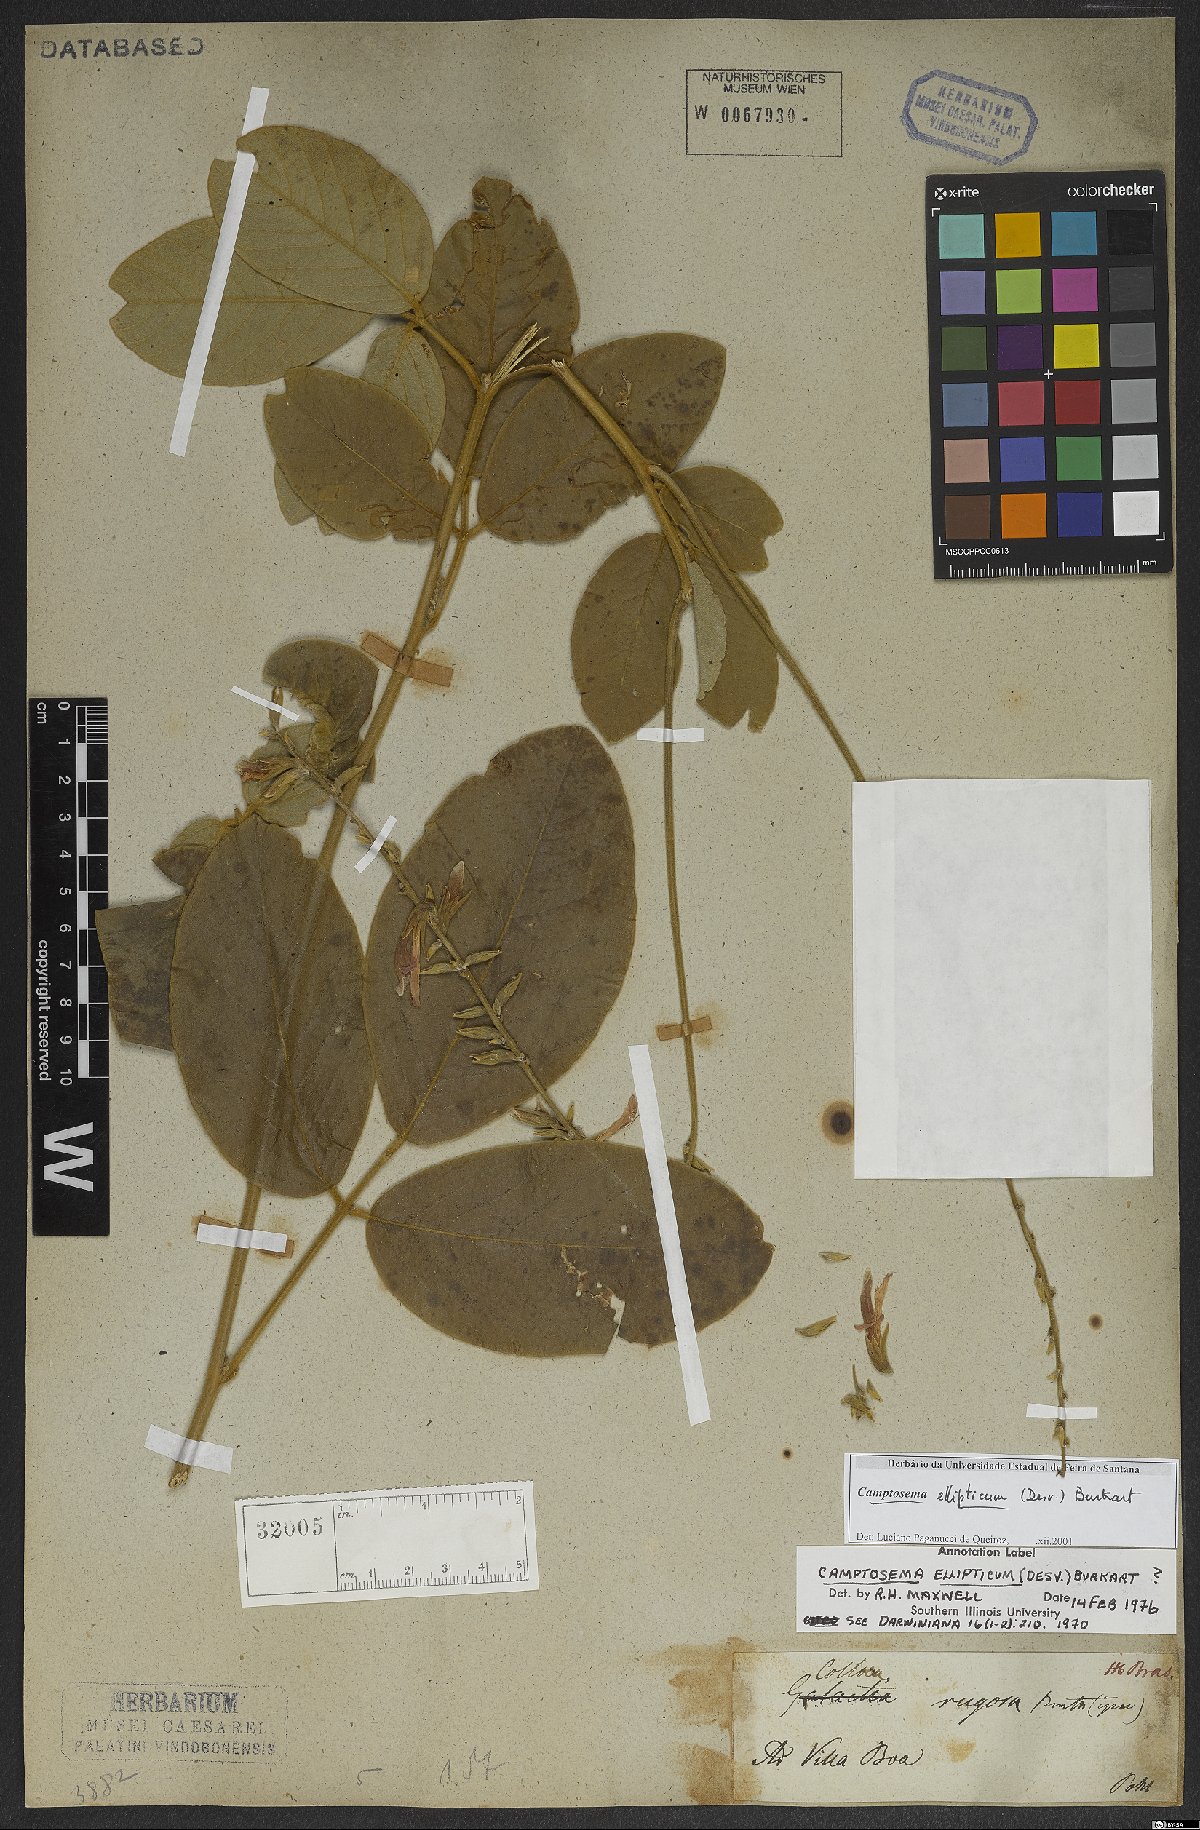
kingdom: Plantae
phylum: Tracheophyta
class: Magnoliopsida
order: Fabales
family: Fabaceae
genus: Cerradicola
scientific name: Cerradicola elliptica
